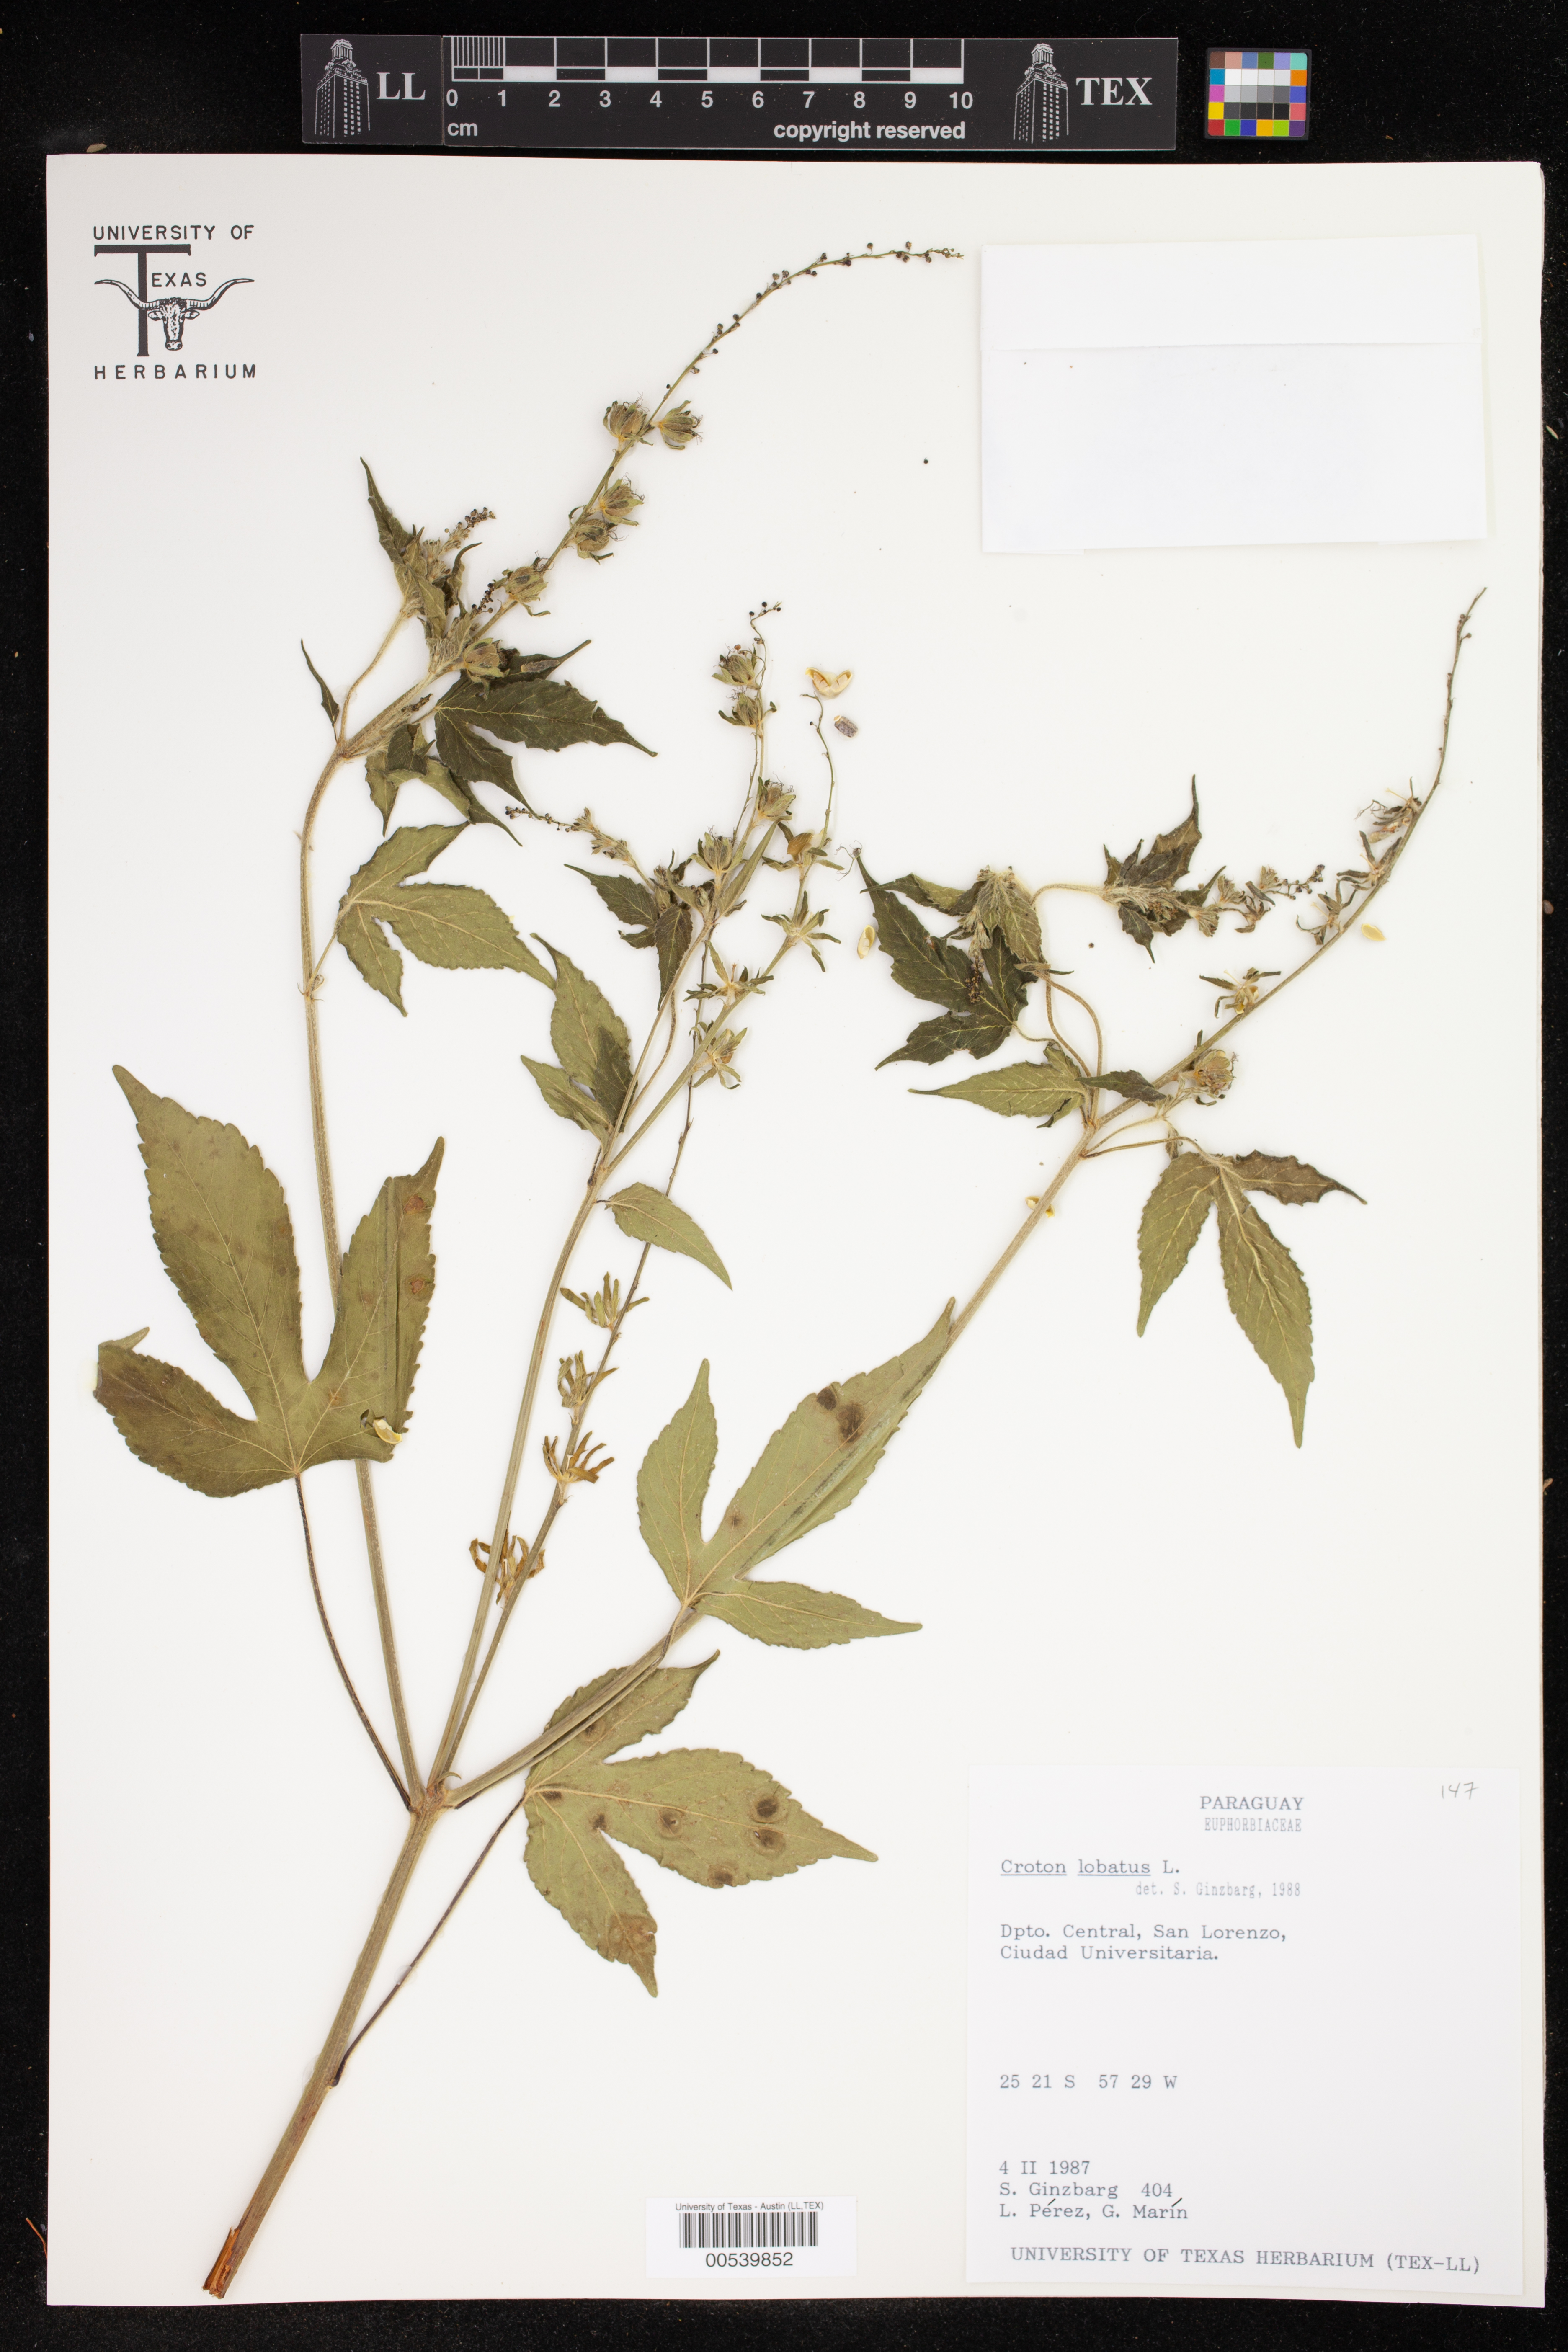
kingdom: Plantae
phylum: Tracheophyta
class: Magnoliopsida
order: Malpighiales
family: Euphorbiaceae
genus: Croton
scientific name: Croton lobatus
